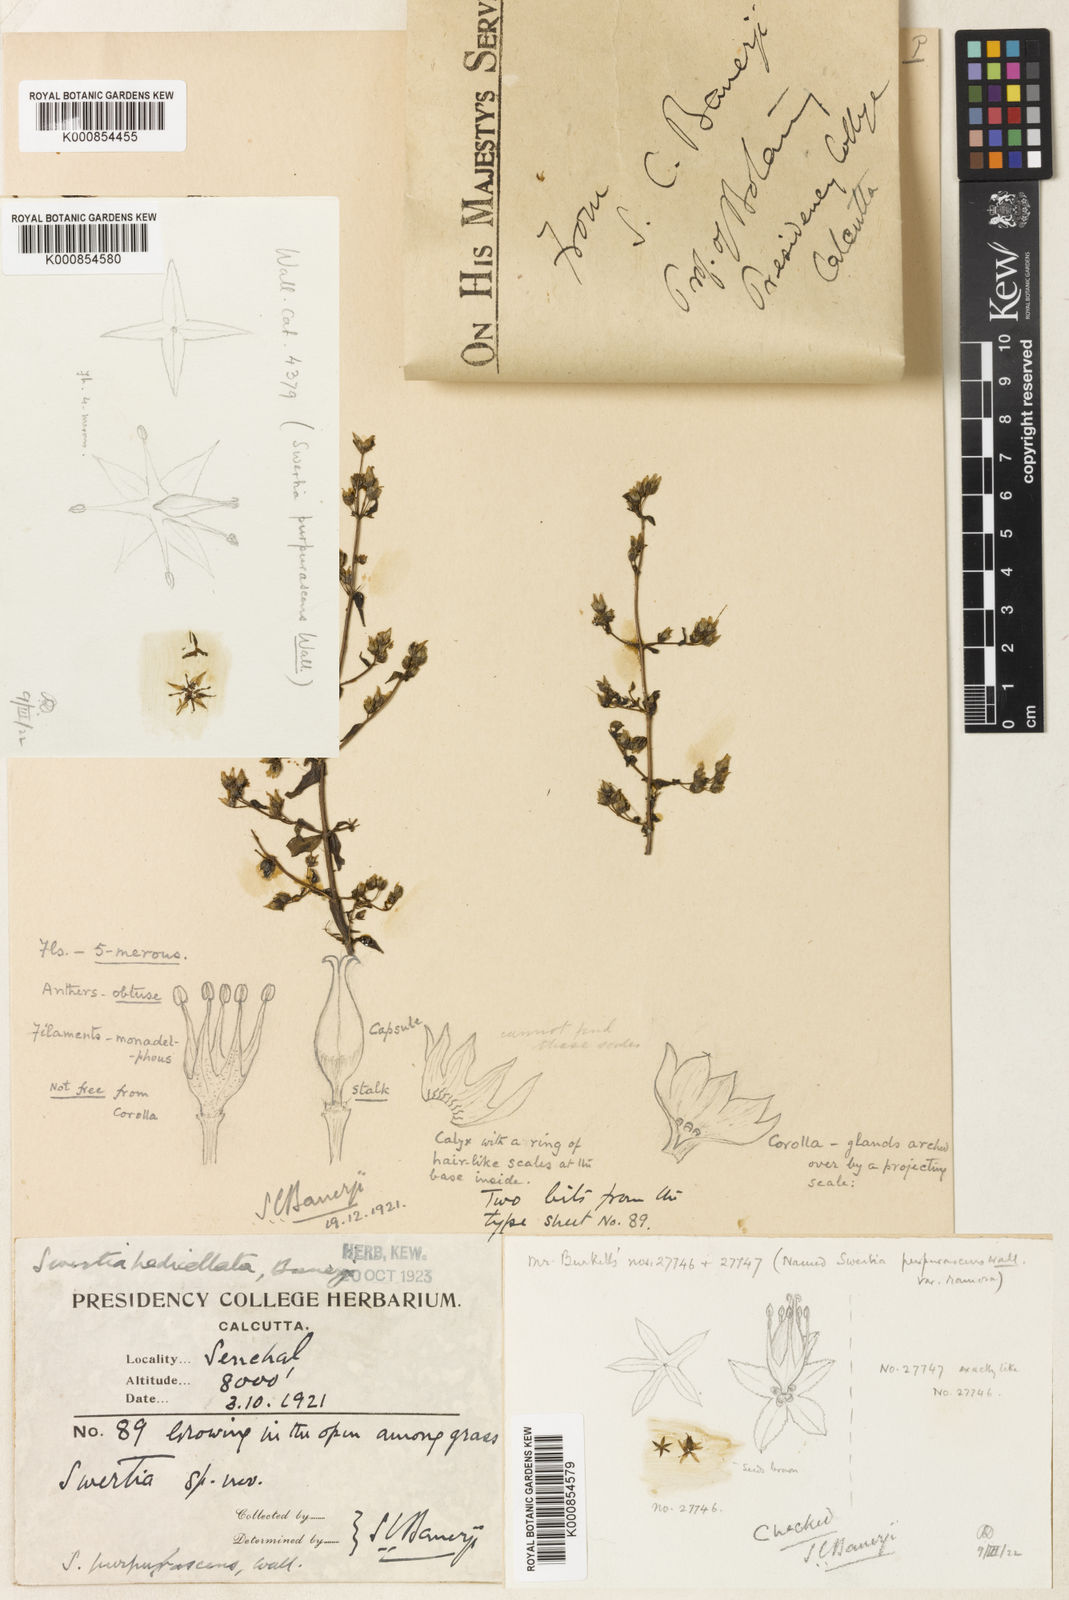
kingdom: Plantae
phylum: Tracheophyta
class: Magnoliopsida
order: Gentianales
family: Gentianaceae
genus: Swertia
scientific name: Swertia purpurascens
